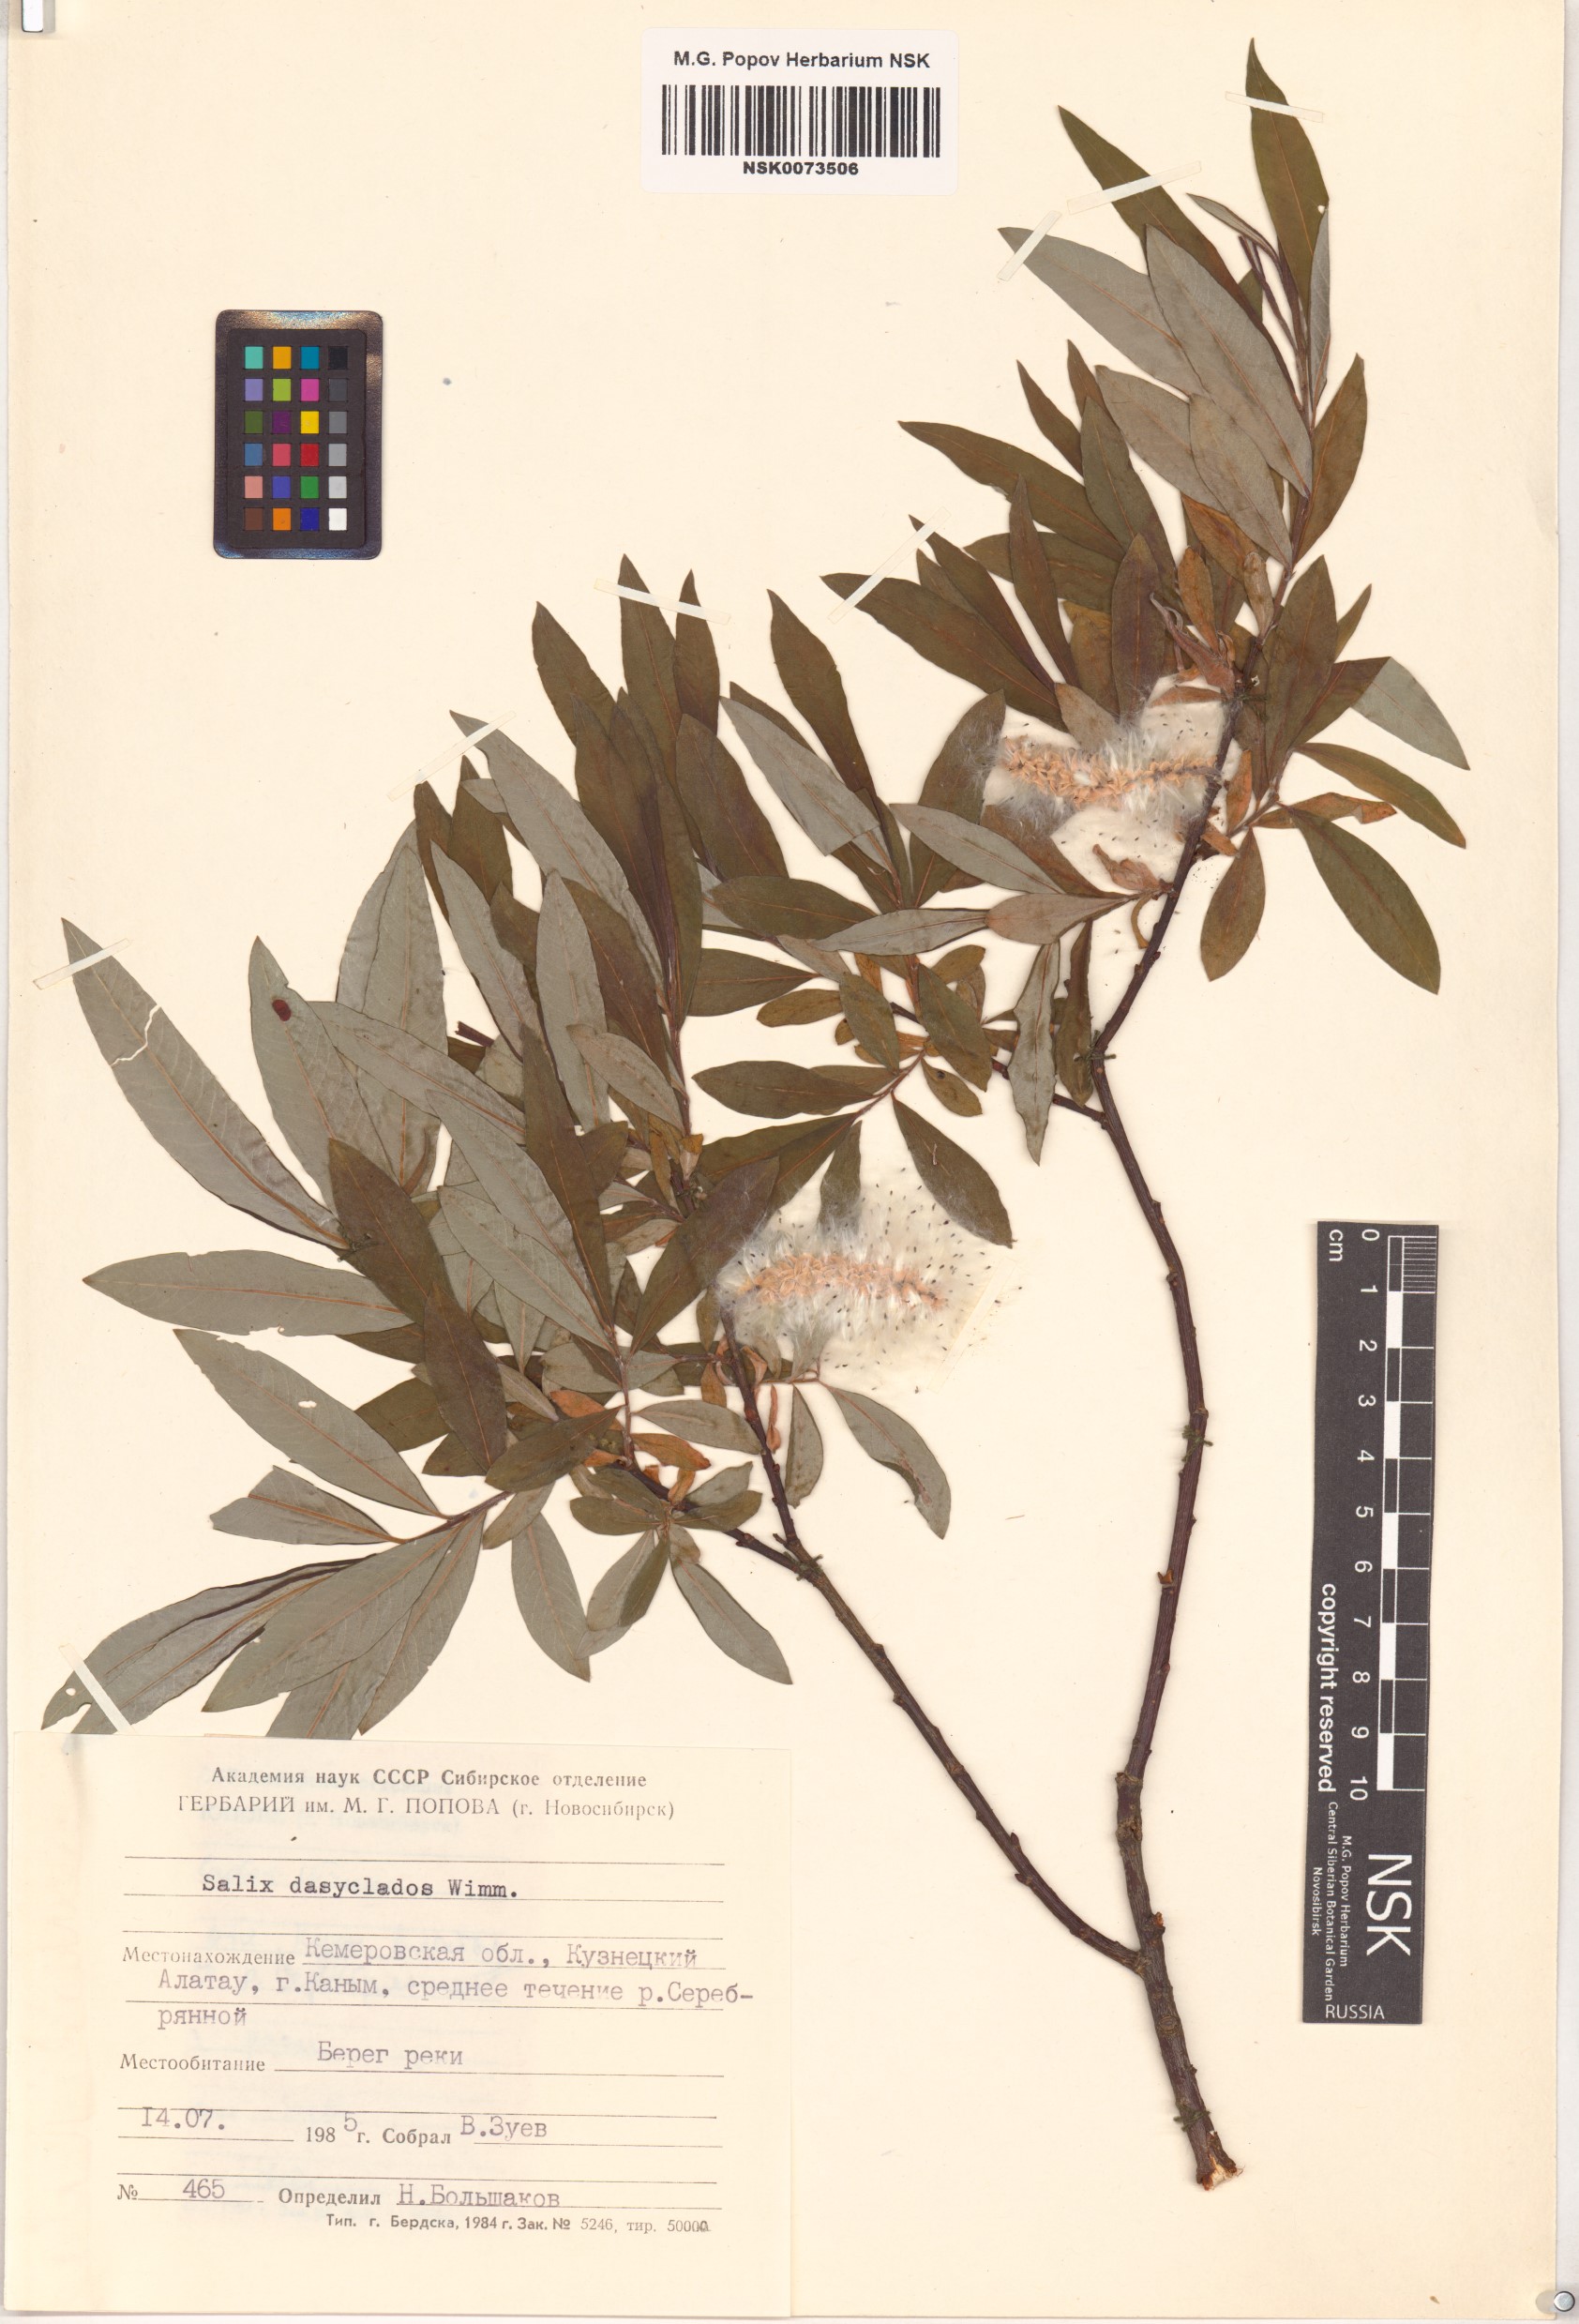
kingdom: Plantae
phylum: Tracheophyta
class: Magnoliopsida
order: Malpighiales
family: Salicaceae
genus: Salix
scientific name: Salix gmelinii
